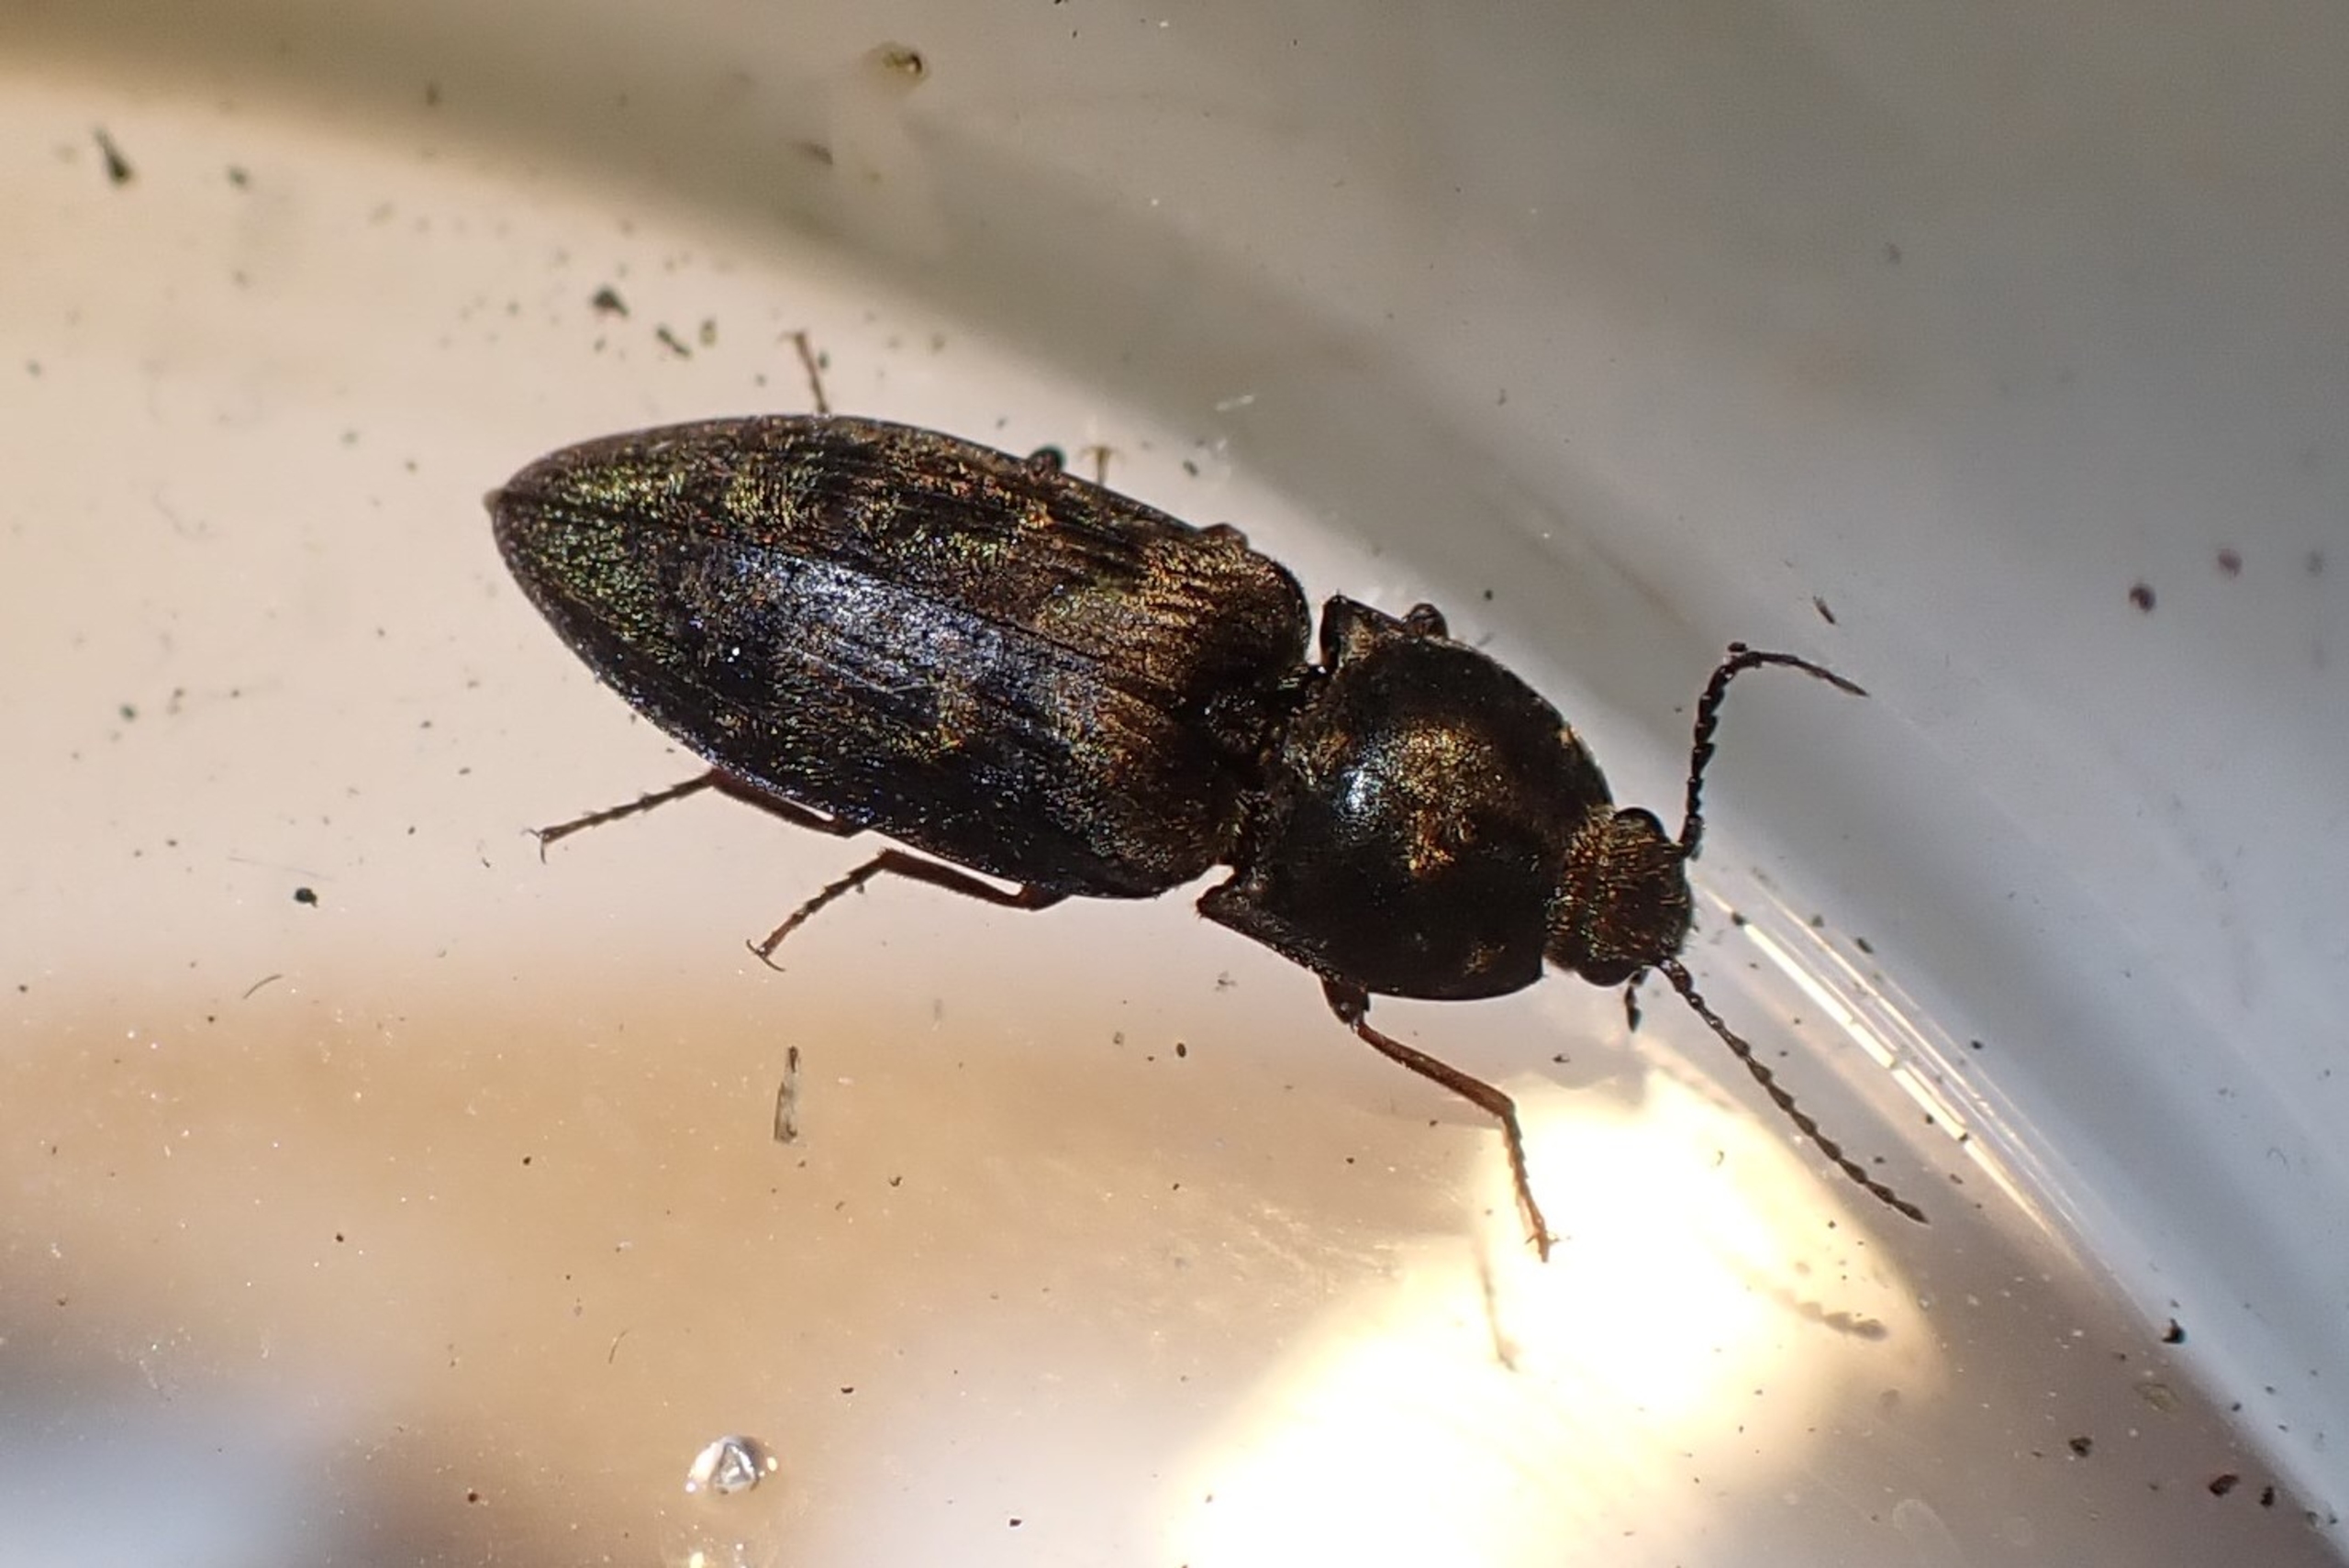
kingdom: Animalia
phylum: Arthropoda
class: Insecta
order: Coleoptera
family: Elateridae
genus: Prosternon
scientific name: Prosternon tessellatum
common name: Silkeglinsende jordsmælder
